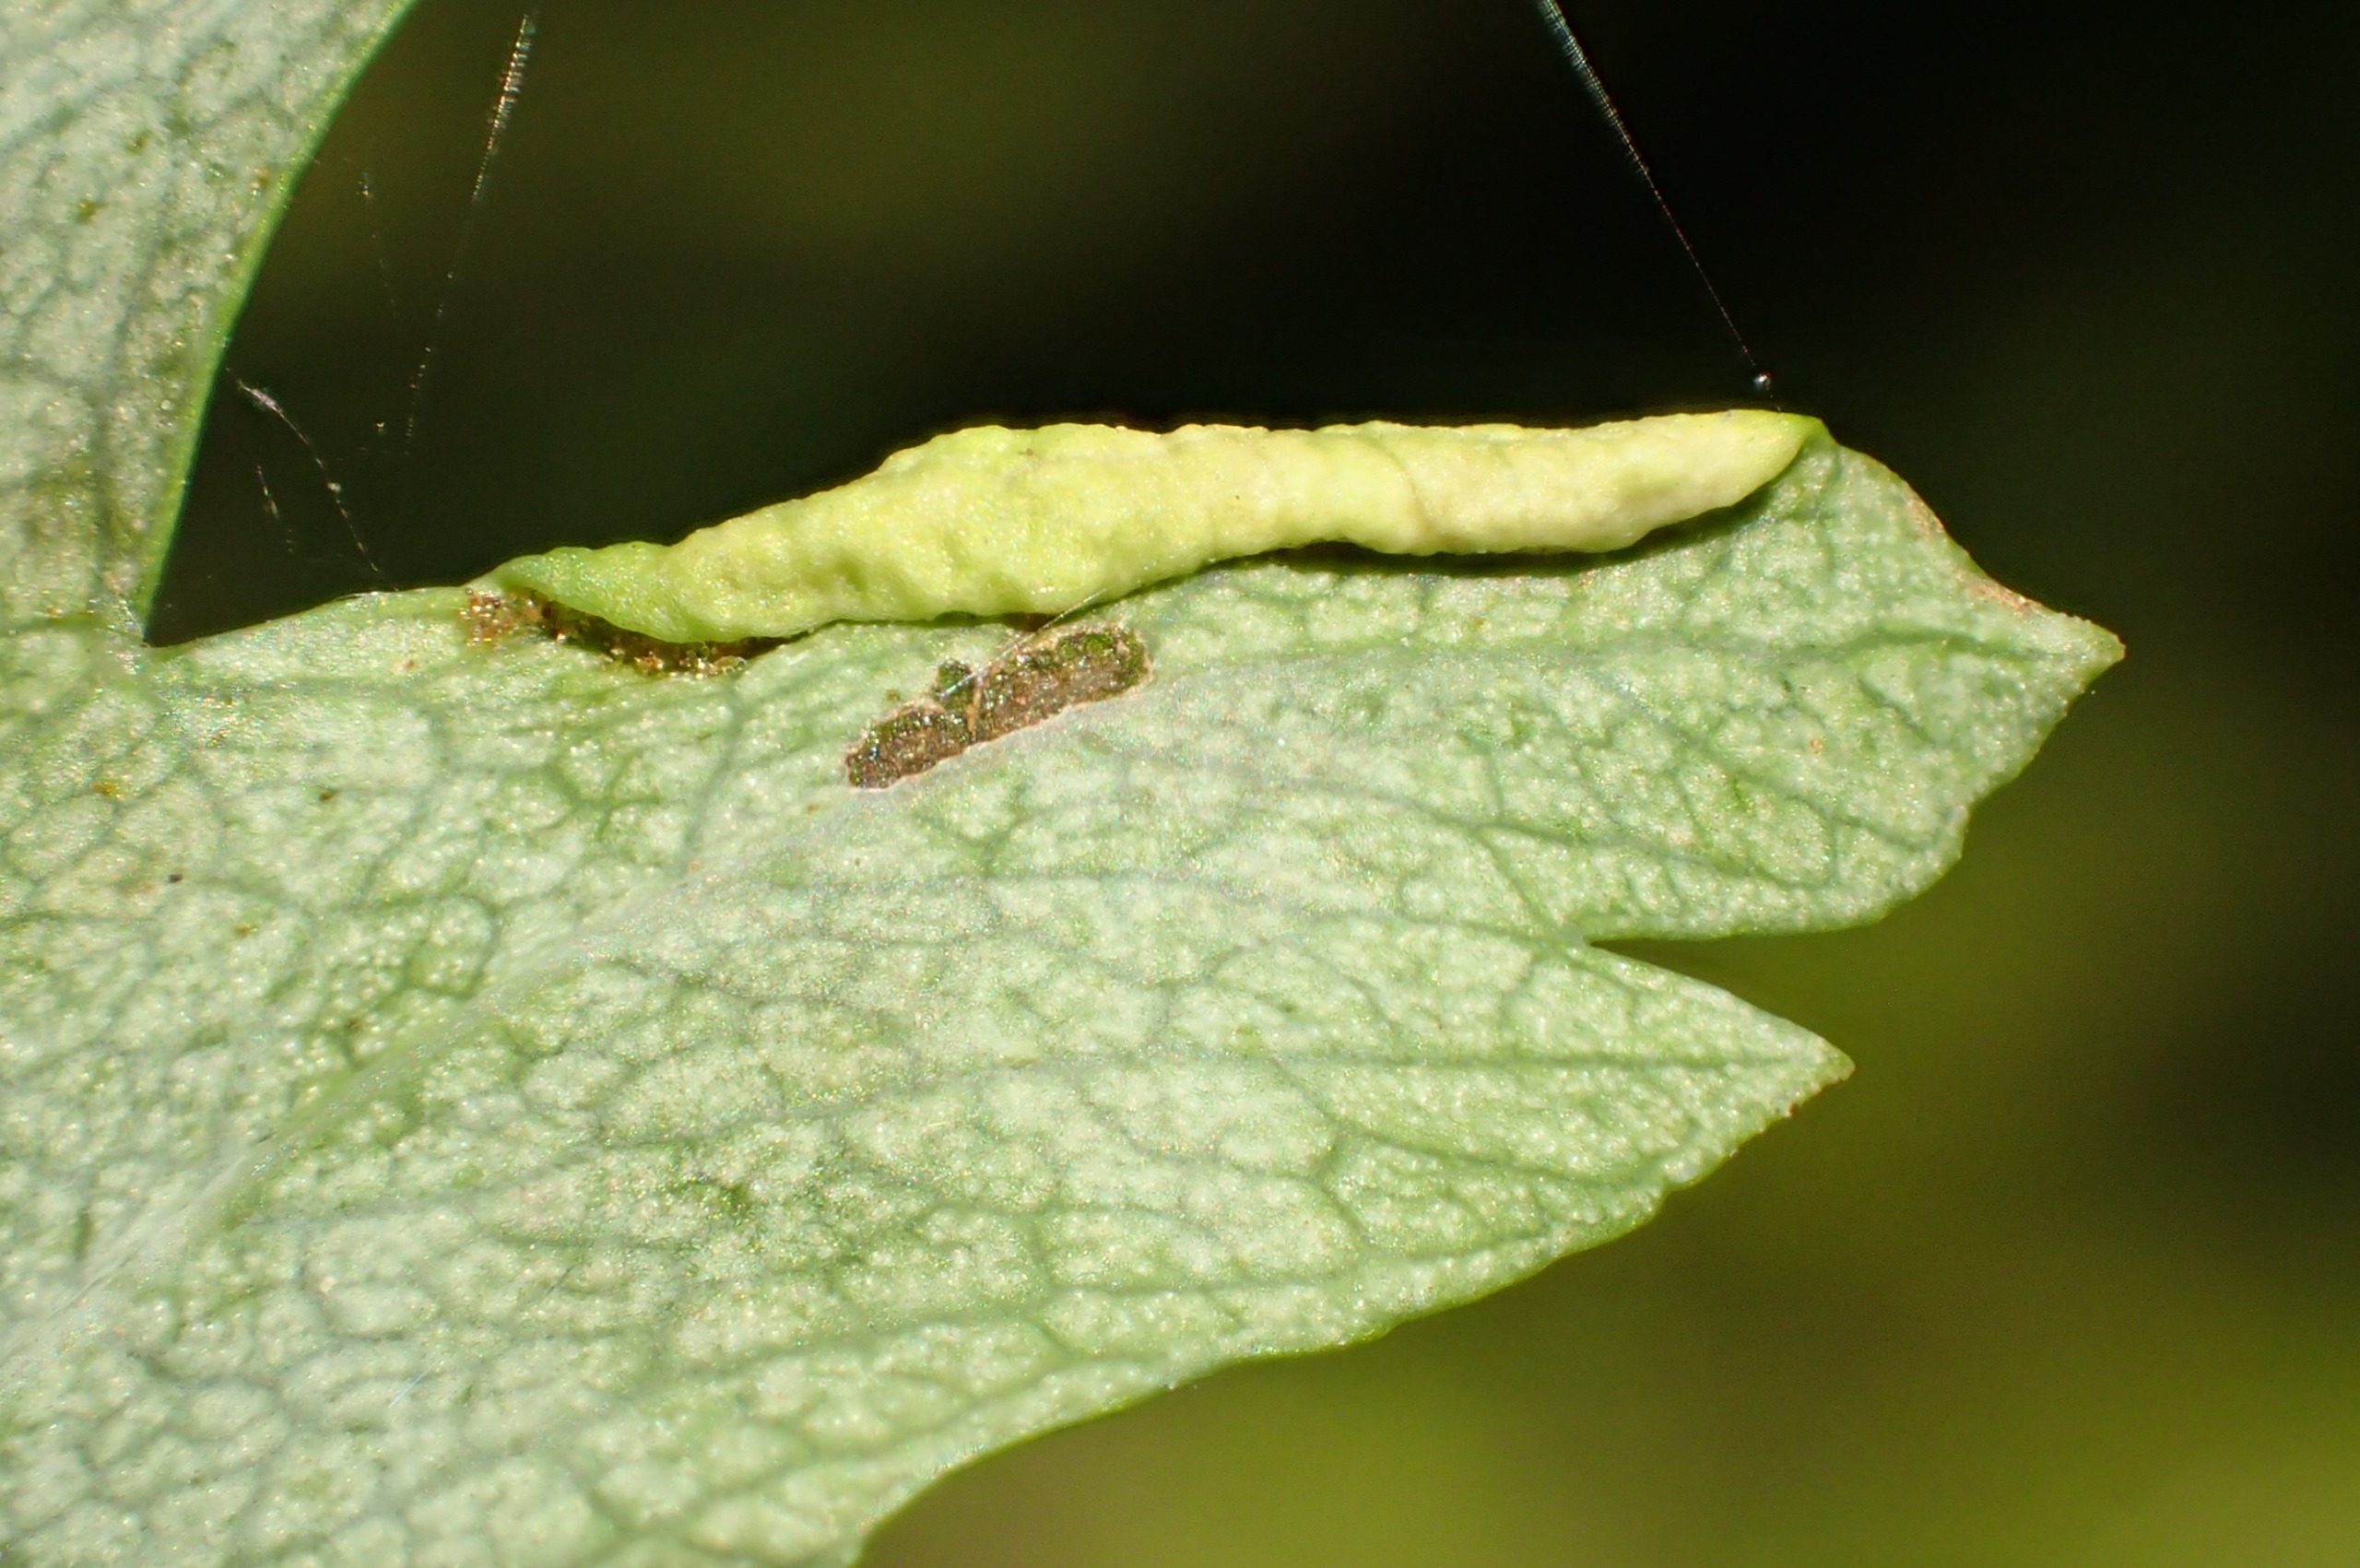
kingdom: Animalia
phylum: Arthropoda
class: Arachnida
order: Trombidiformes
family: Eriophyidae
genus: Phyllocoptes
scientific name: Phyllocoptes goniothorax
